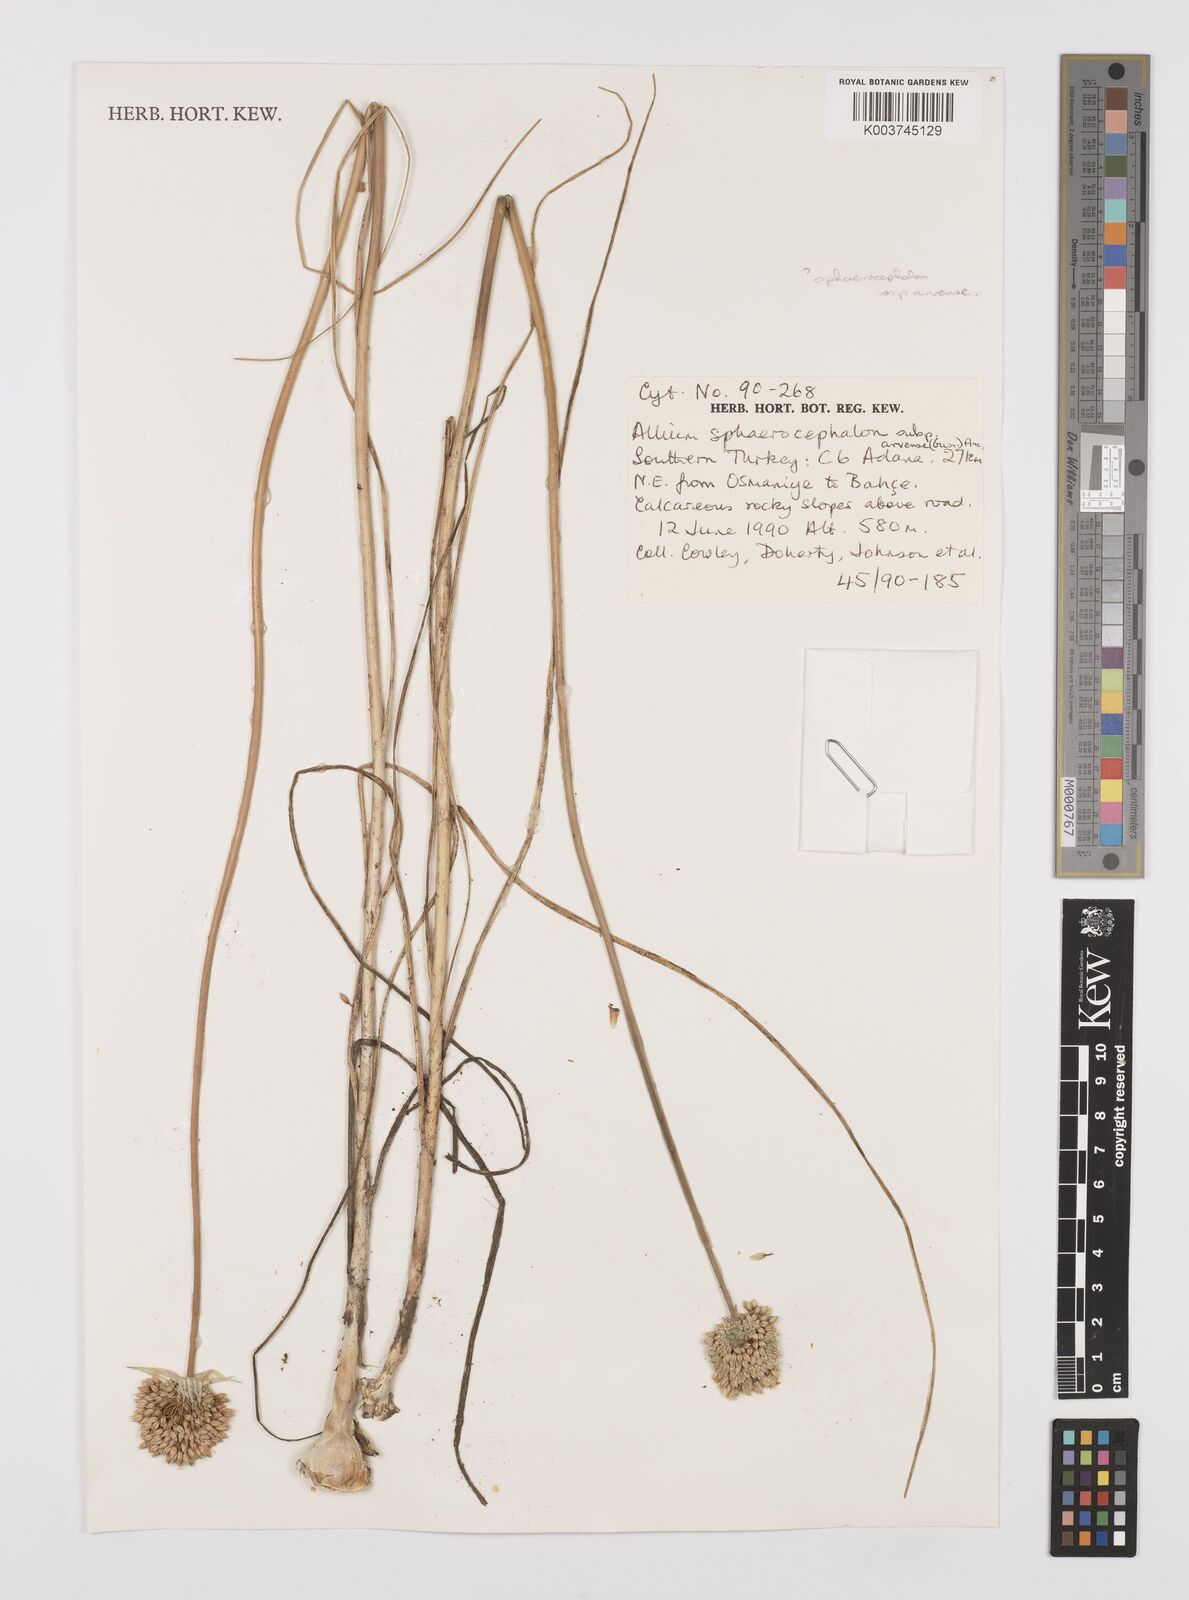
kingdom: Plantae
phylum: Tracheophyta
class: Liliopsida
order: Asparagales
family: Amaryllidaceae
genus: Allium
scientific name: Allium sphaerocephalon
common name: Round-headed leek
